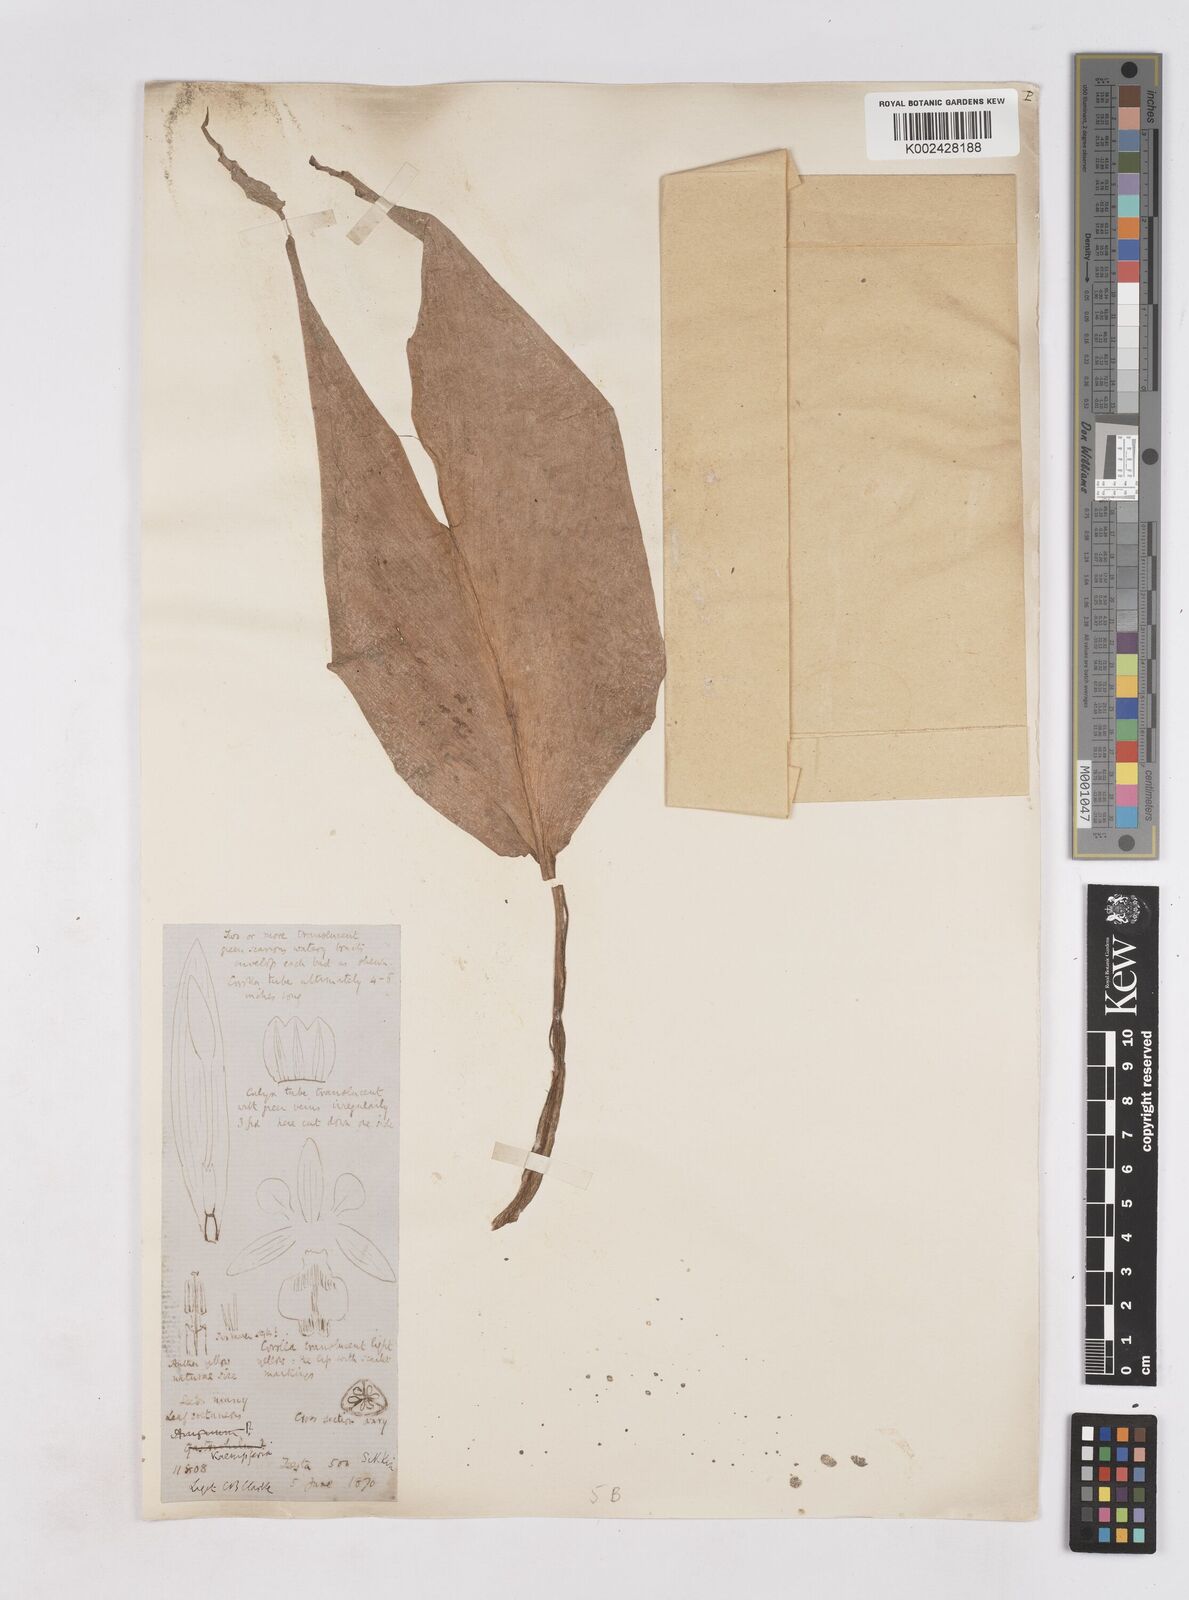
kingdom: Plantae
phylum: Tracheophyta
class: Liliopsida
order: Zingiberales
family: Zingiberaceae
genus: Boesenbergia
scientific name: Boesenbergia longiflora
